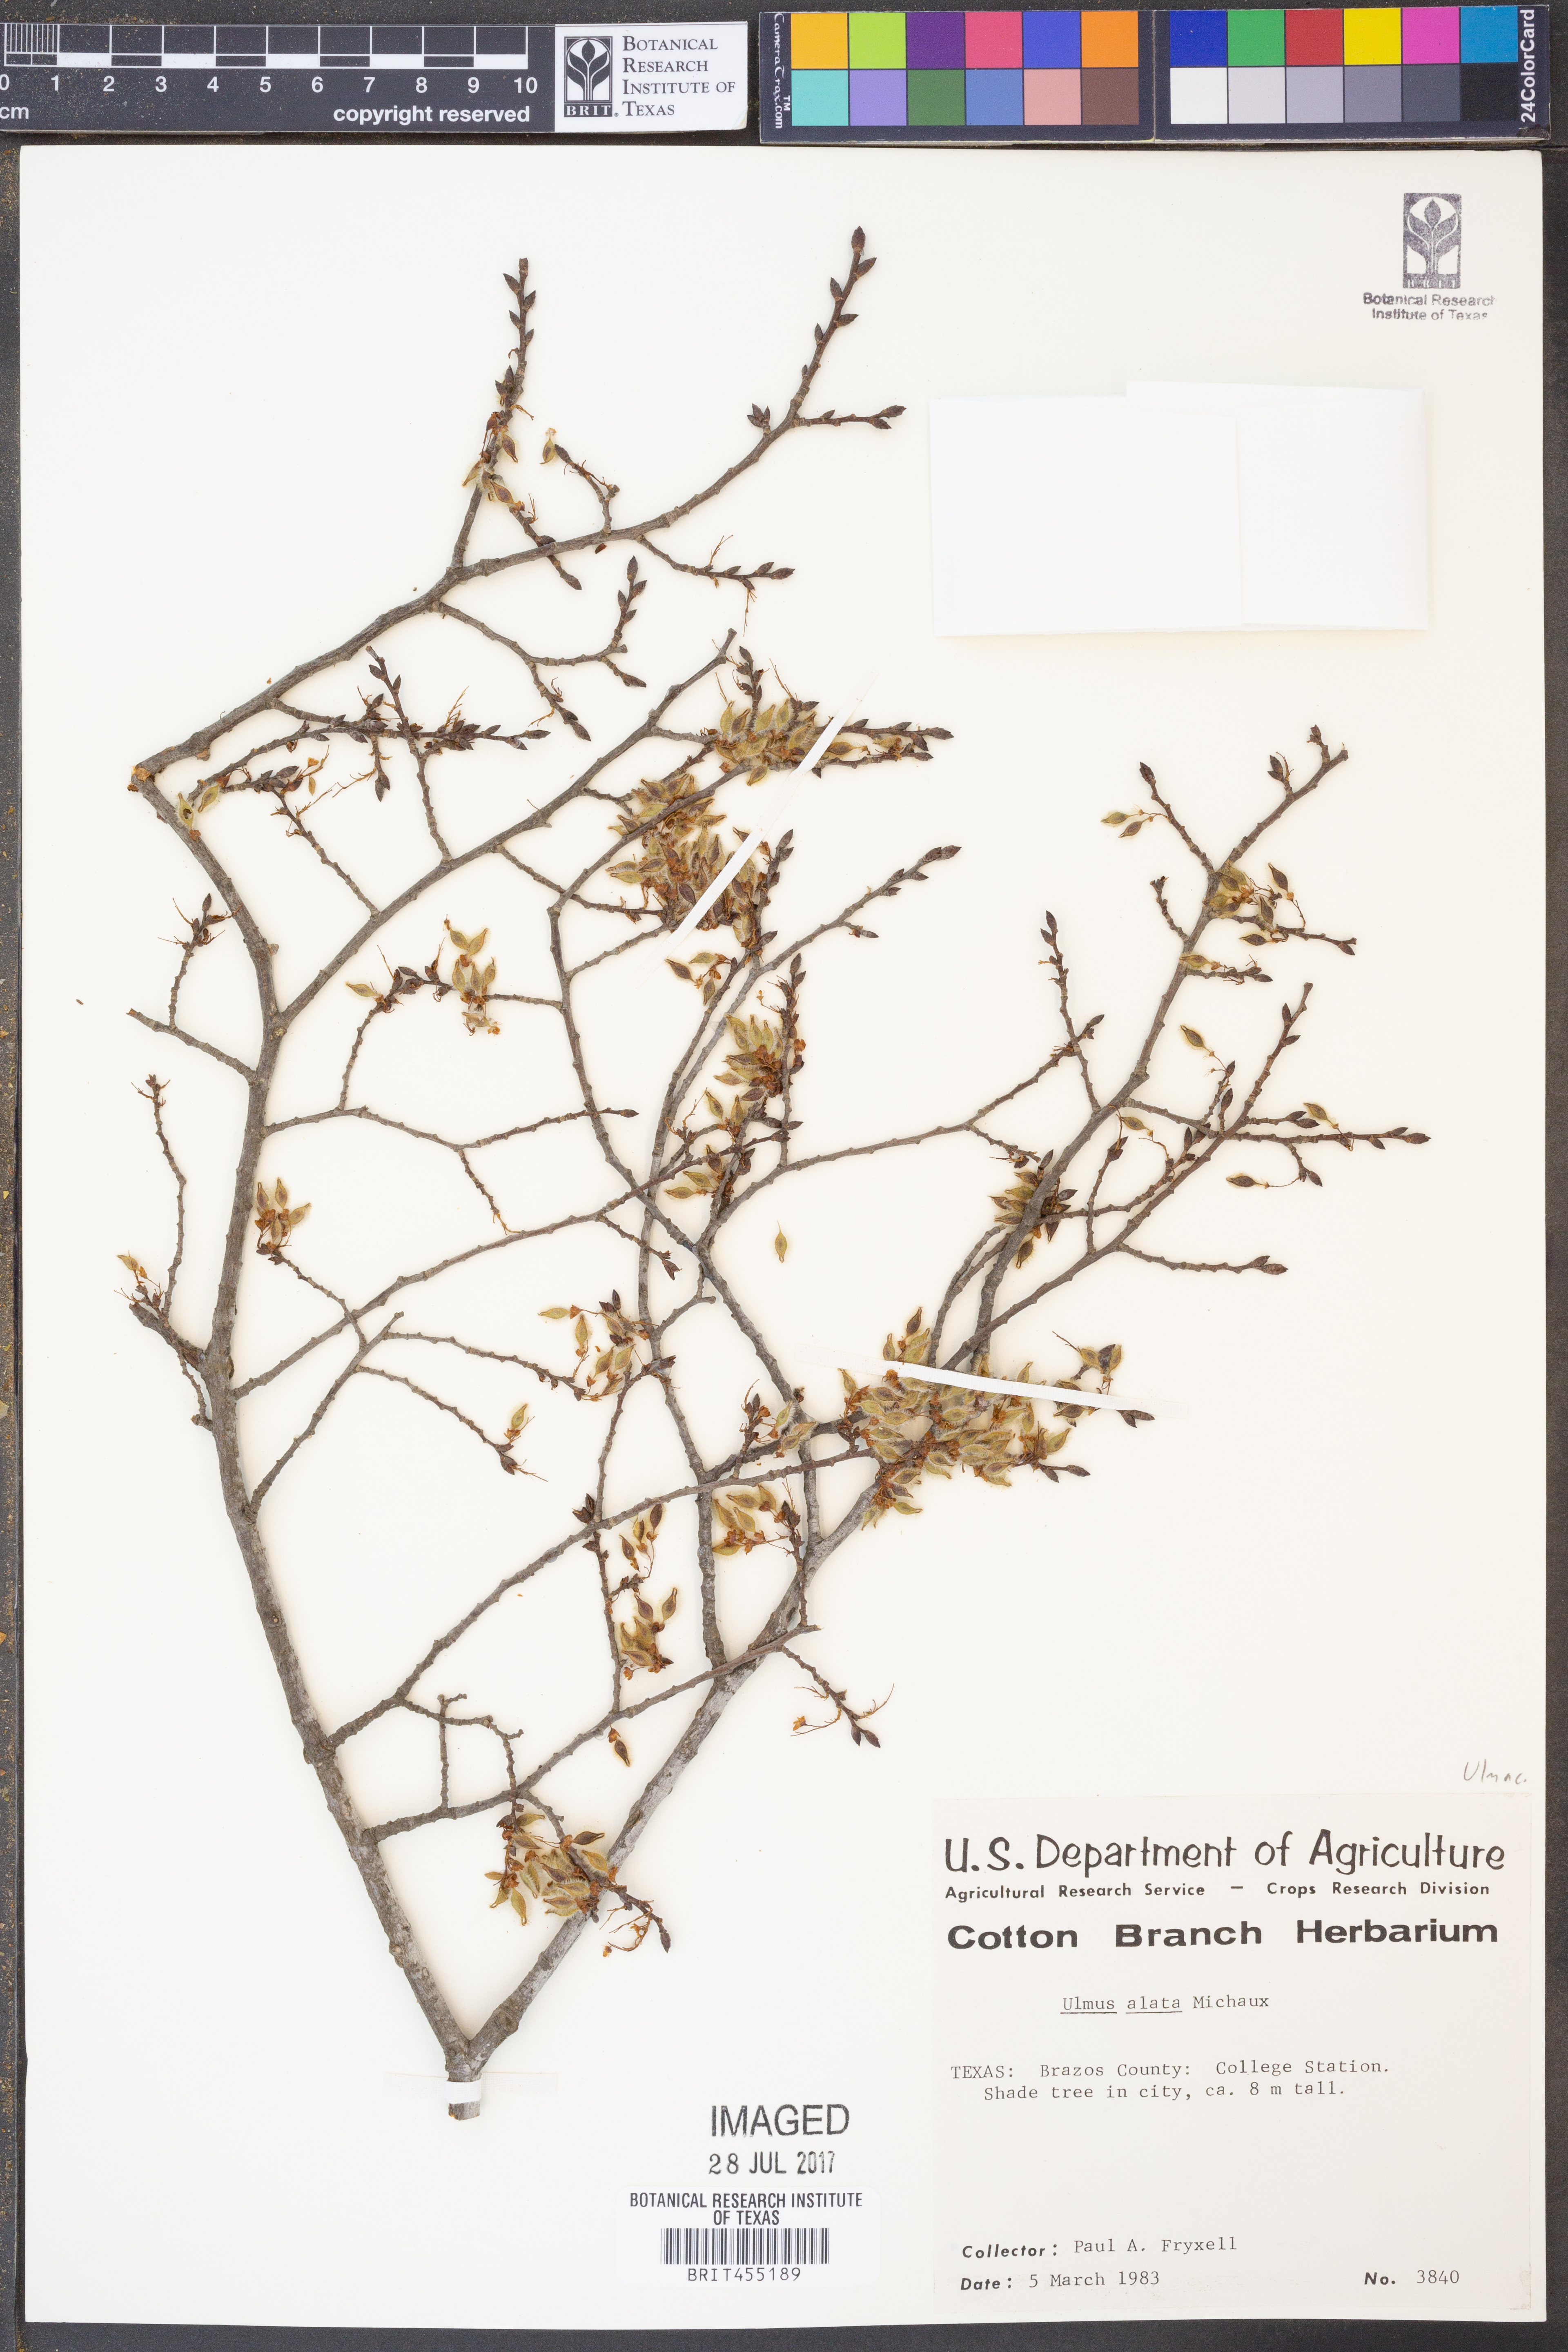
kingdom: Plantae
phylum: Tracheophyta
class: Magnoliopsida
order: Rosales
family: Ulmaceae
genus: Ulmus
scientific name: Ulmus alata
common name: Winged elm
